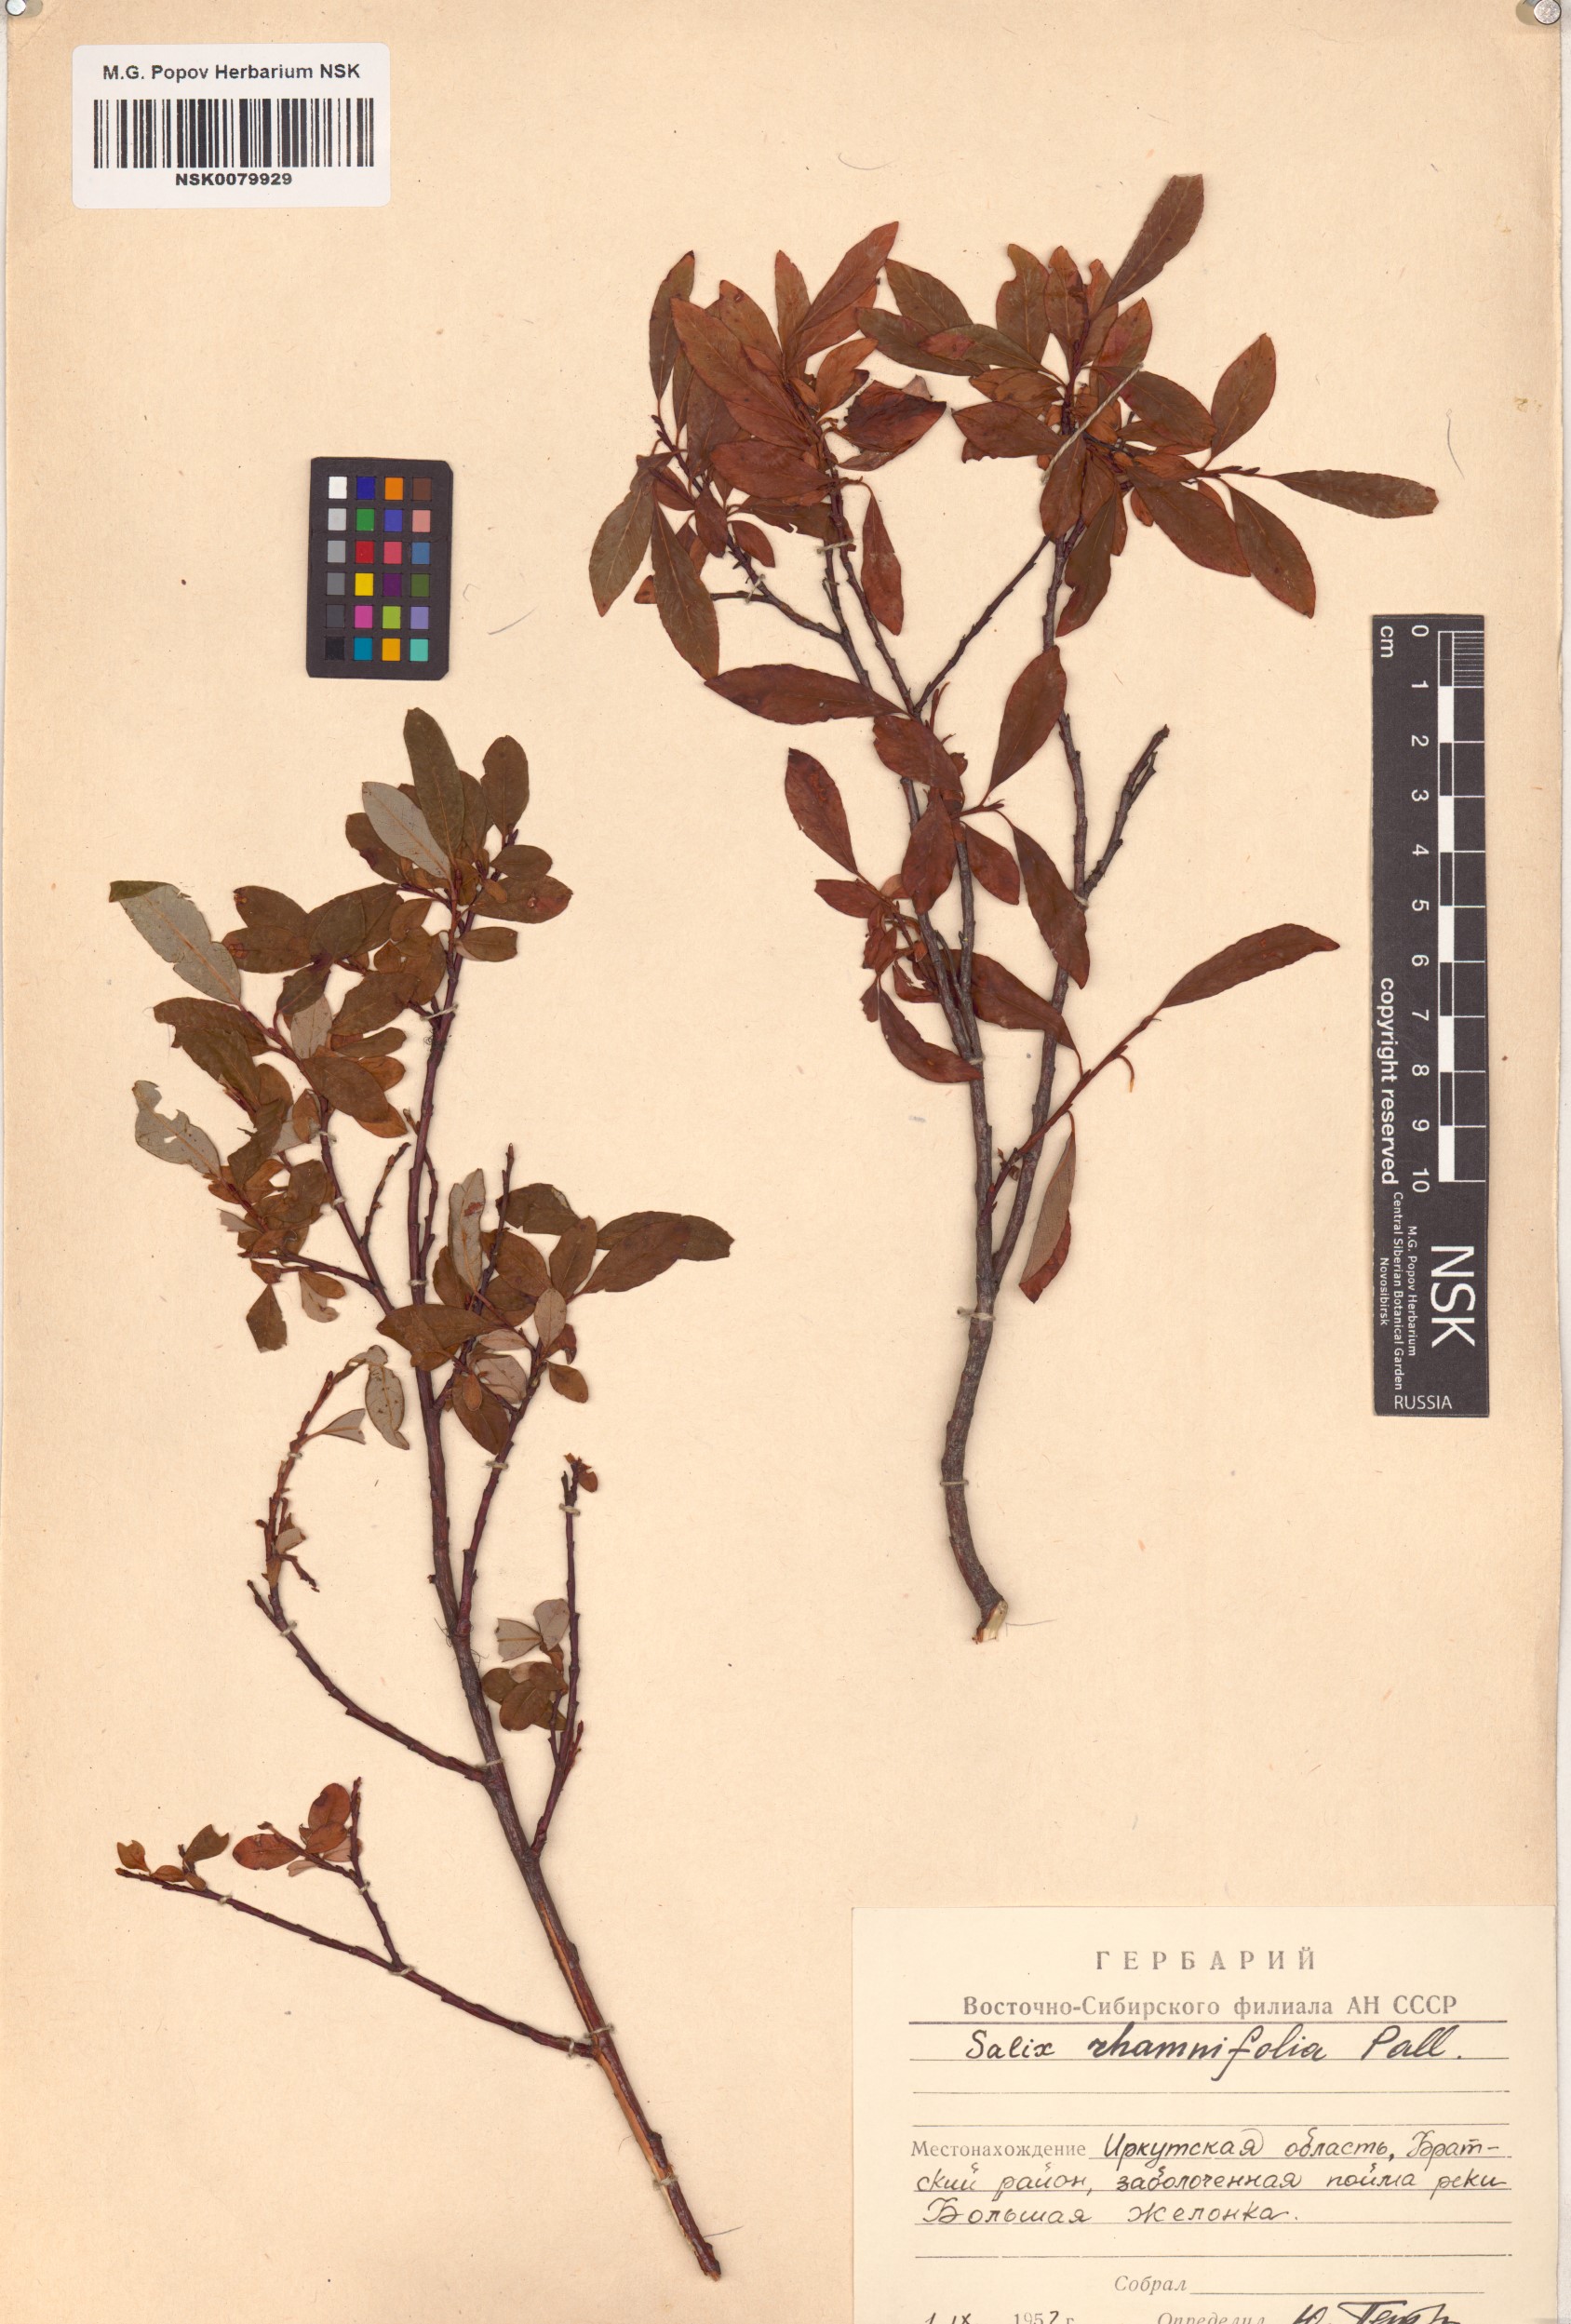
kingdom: Plantae
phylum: Tracheophyta
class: Magnoliopsida
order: Malpighiales
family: Salicaceae
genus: Salix
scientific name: Salix rhamnifolia
